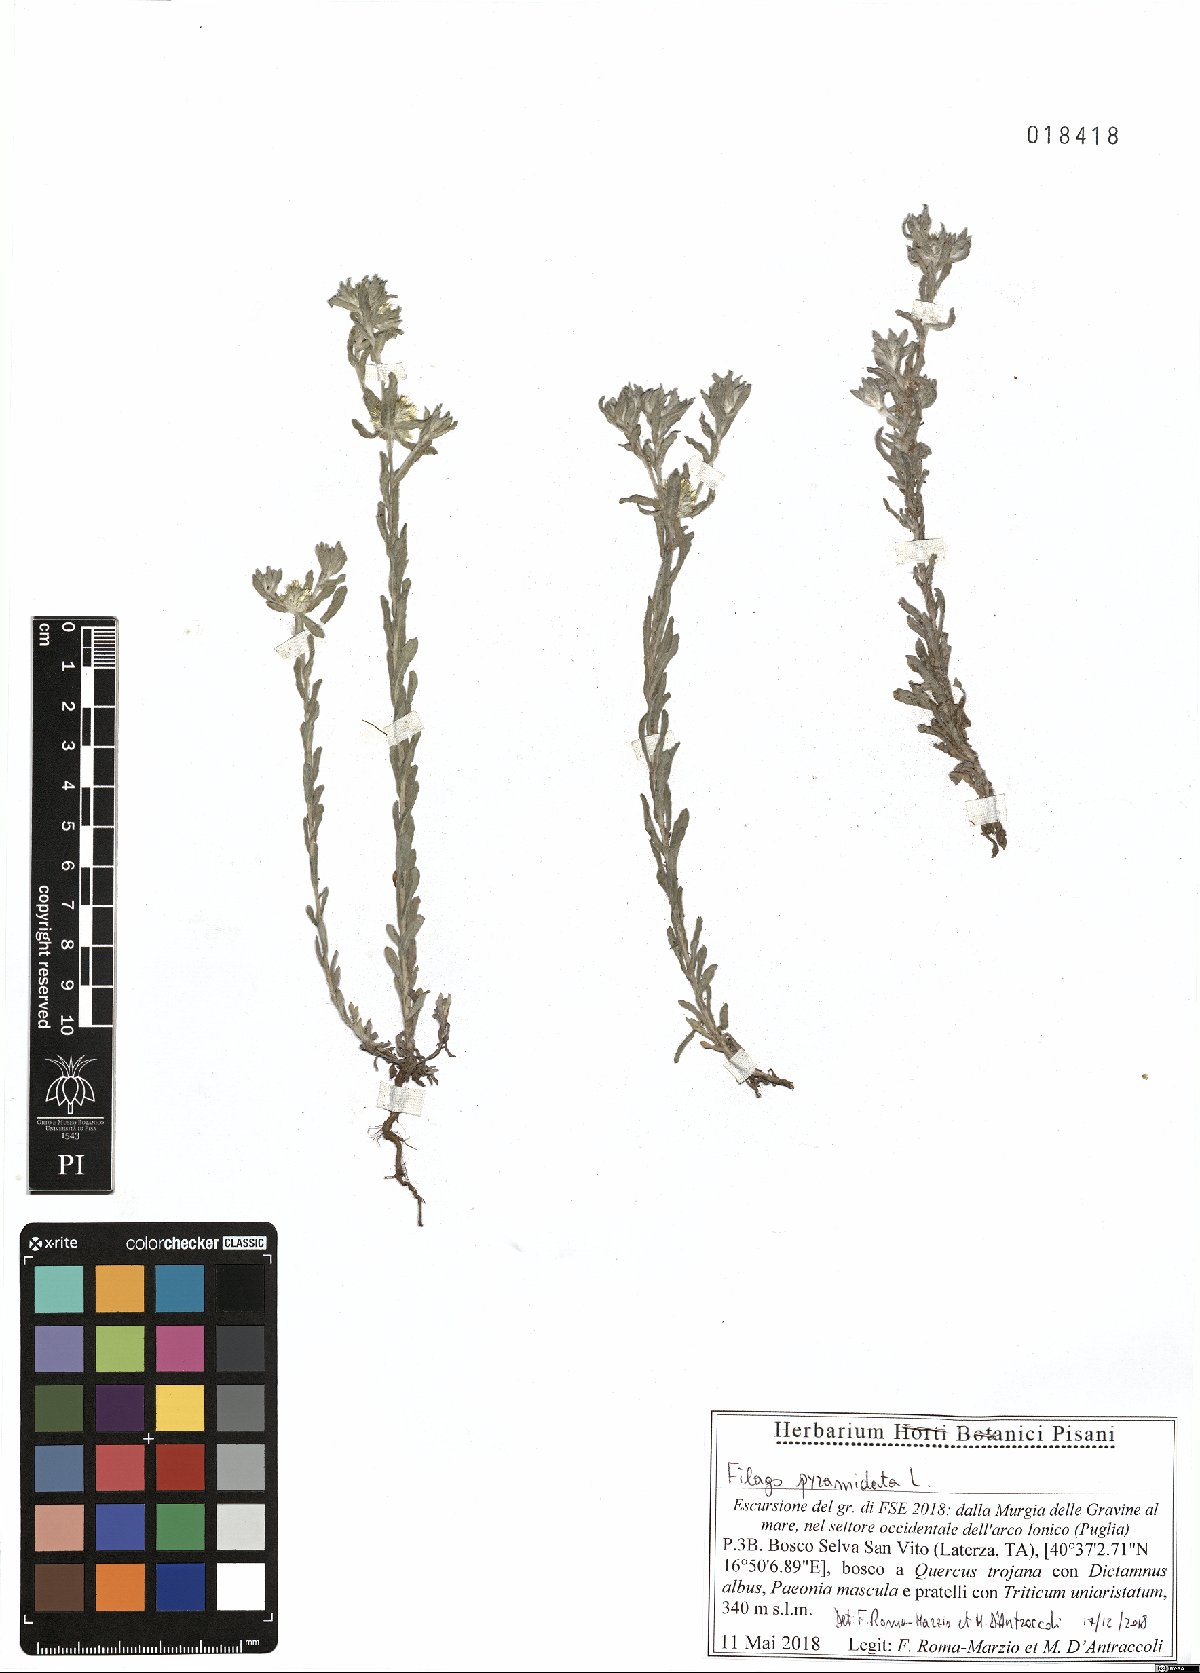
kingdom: Plantae
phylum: Tracheophyta
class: Magnoliopsida
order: Asterales
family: Asteraceae
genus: Filago
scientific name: Filago pyramidata
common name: Broad-leaved cudweed
